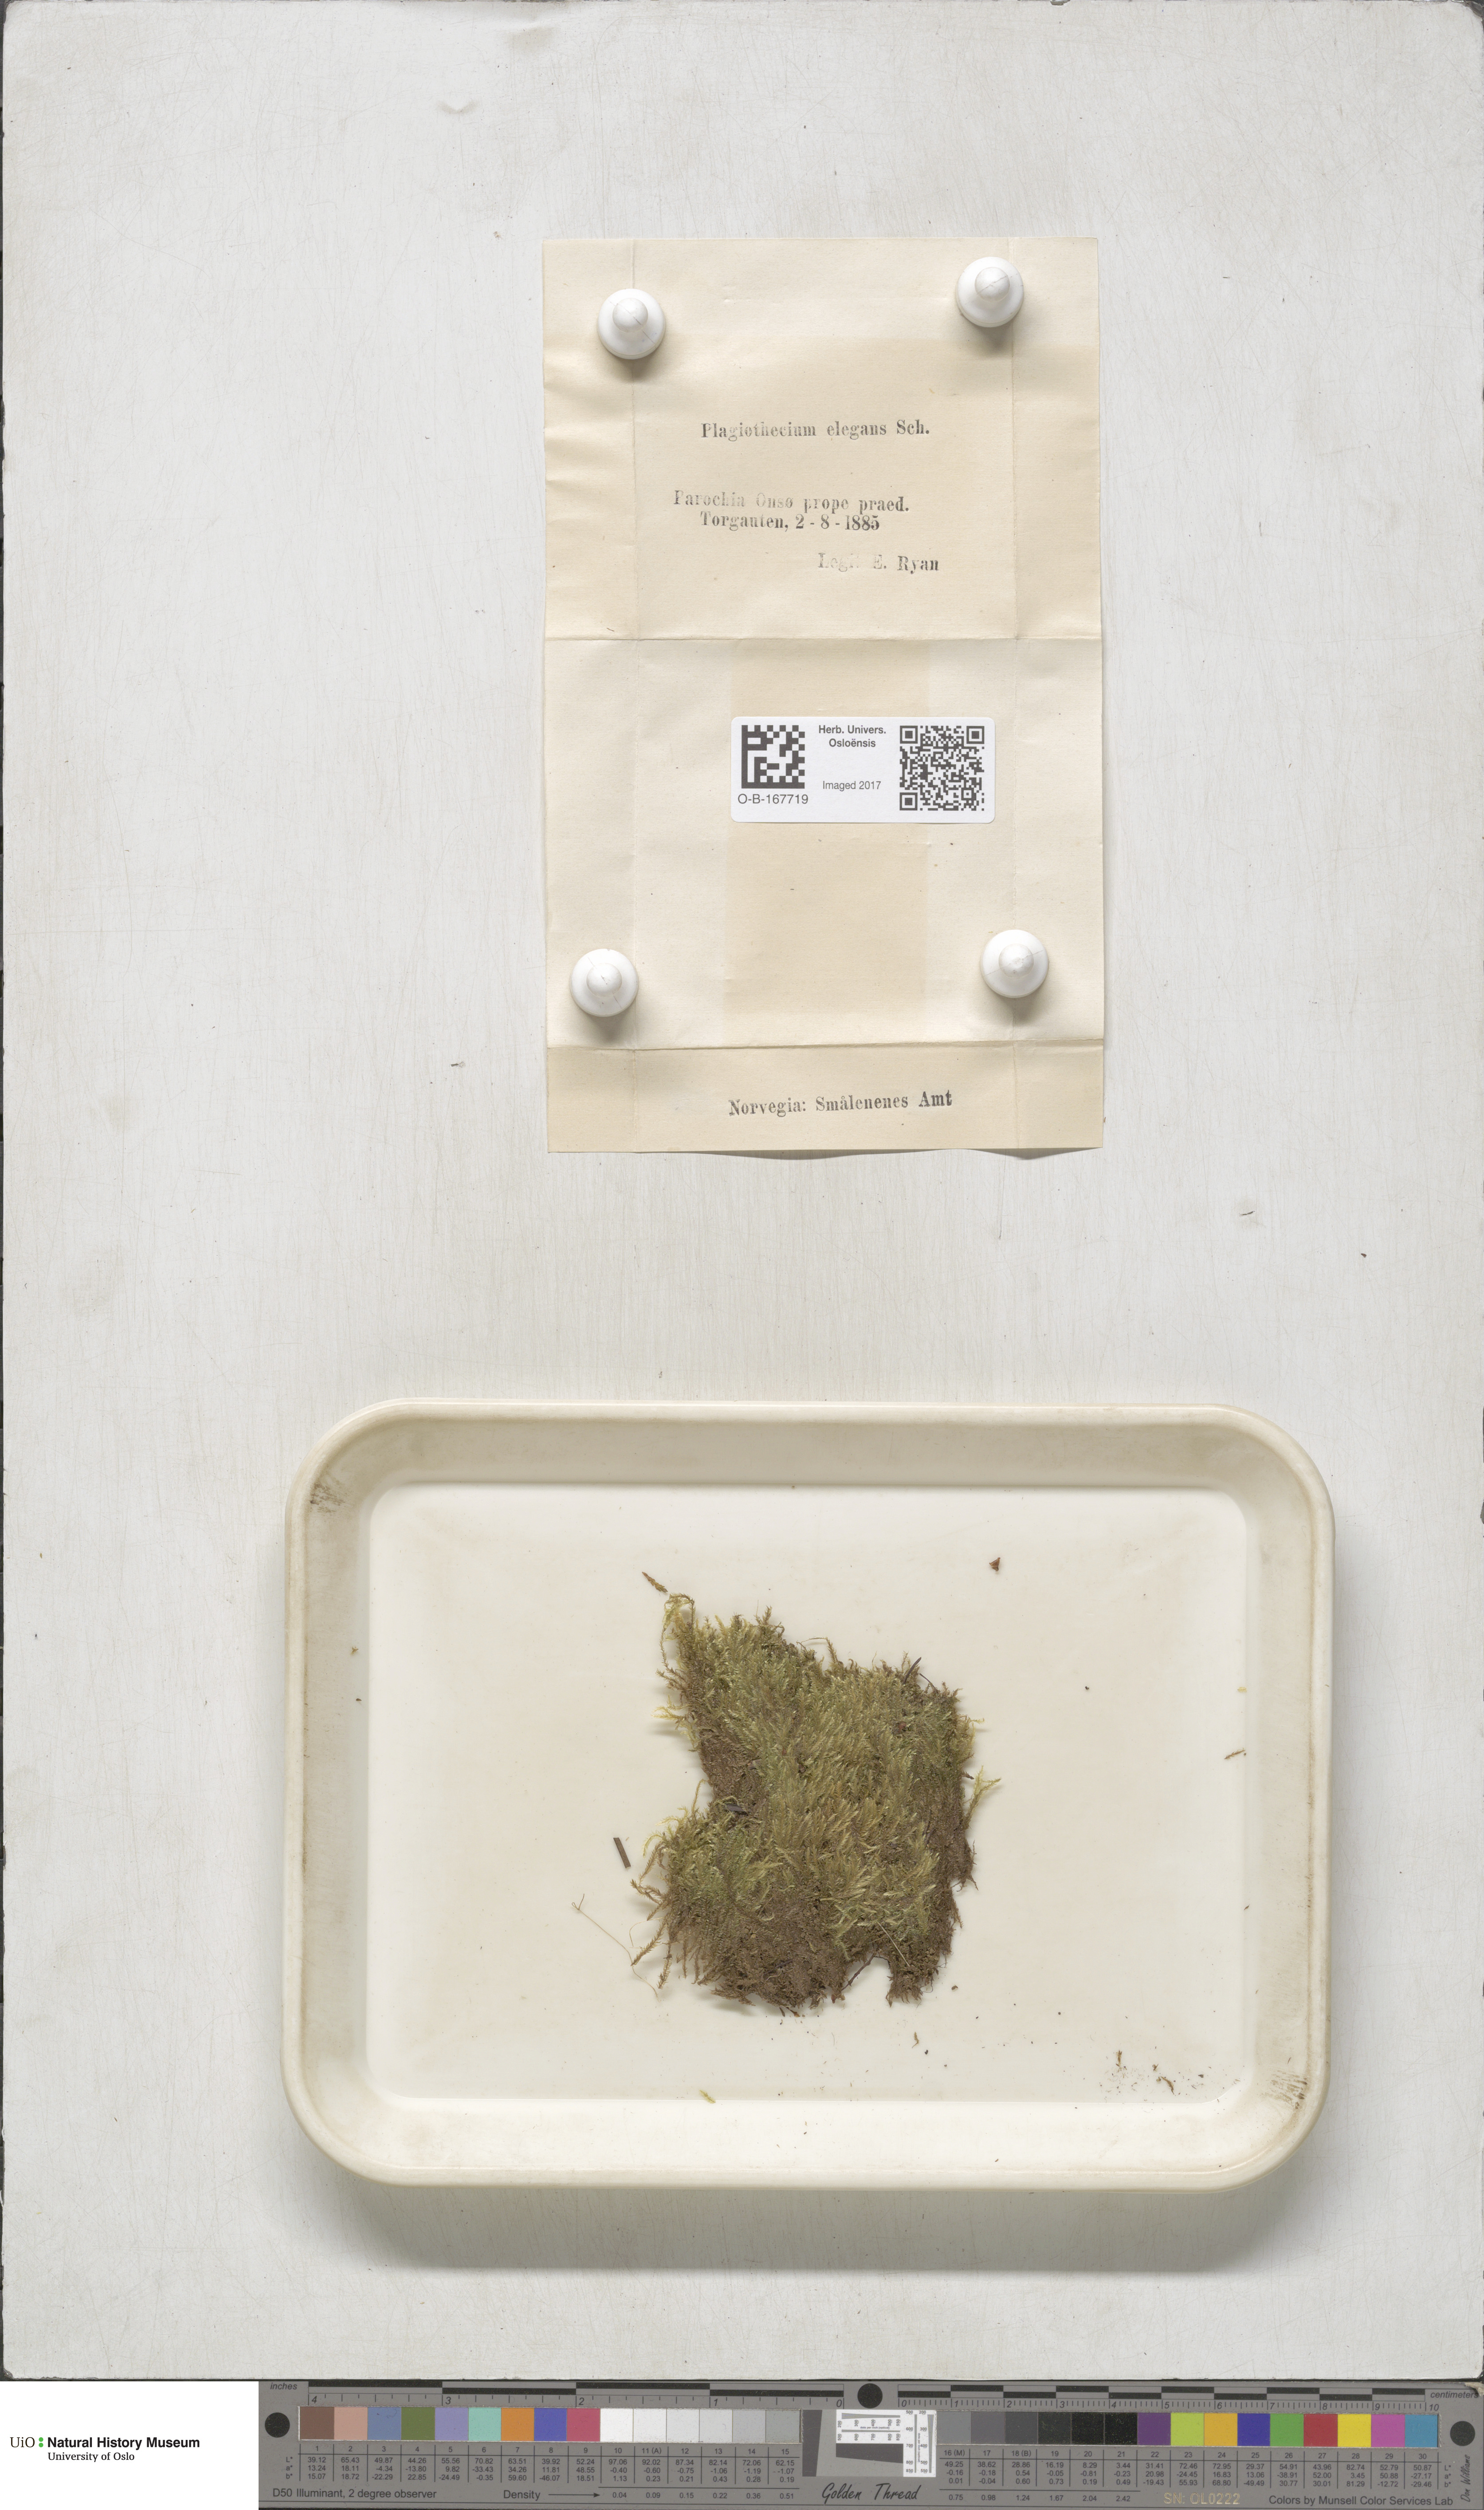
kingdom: Plantae
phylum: Bryophyta
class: Bryopsida
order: Hypnales
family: Plagiotheciaceae
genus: Pseudotaxiphyllum
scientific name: Pseudotaxiphyllum elegans
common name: Elegant silk moss
